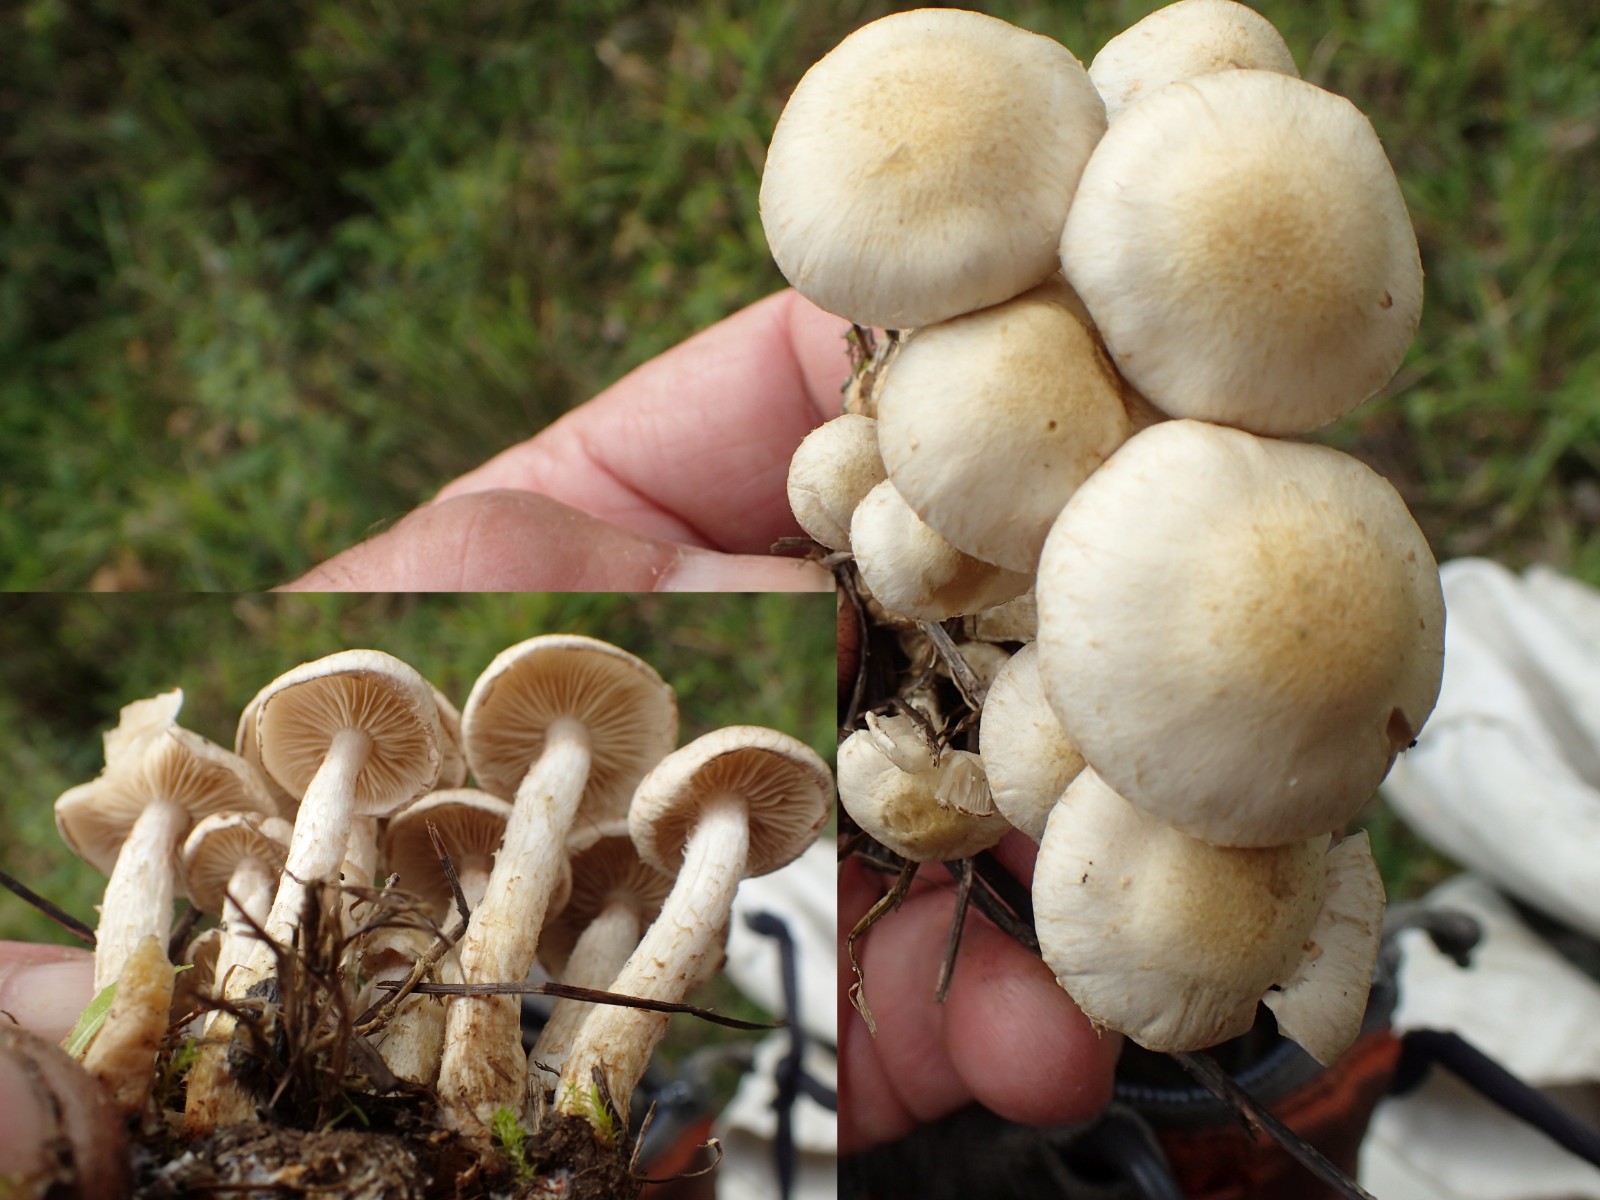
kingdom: Fungi
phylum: Basidiomycota
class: Agaricomycetes
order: Agaricales
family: Strophariaceae
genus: Pholiota
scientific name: Pholiota gummosa
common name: grøngul skælhat
